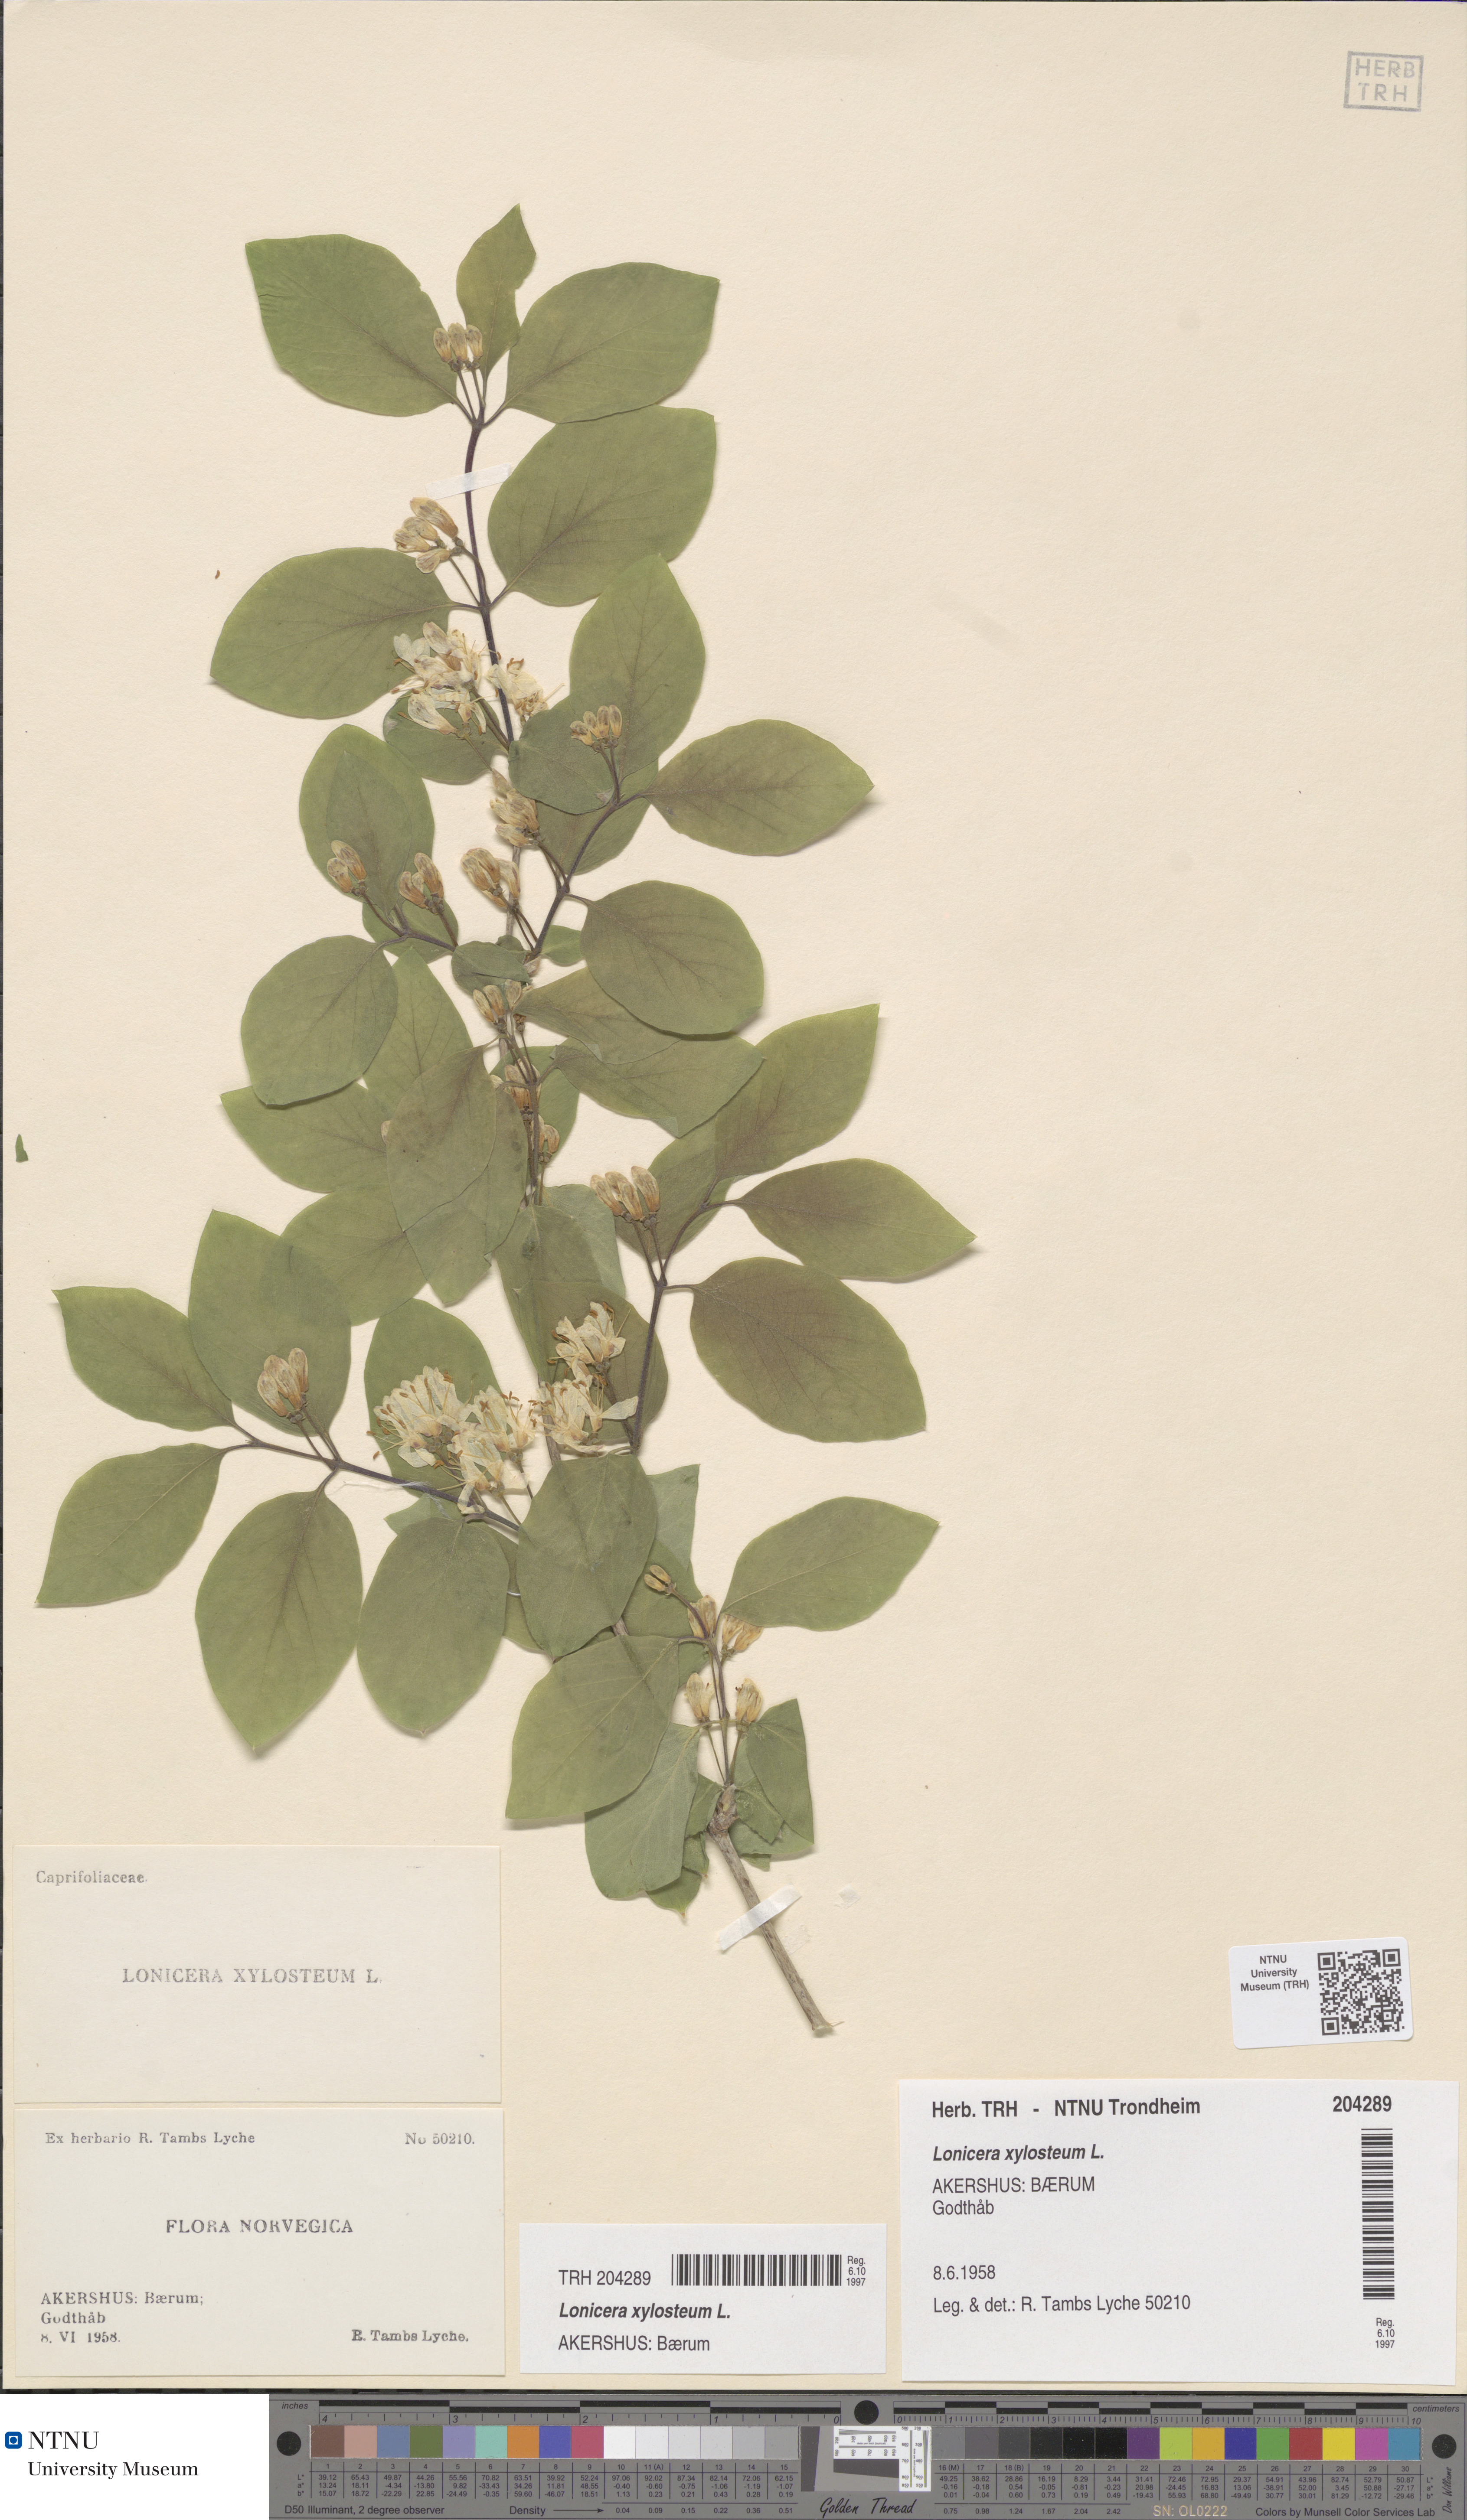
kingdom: Plantae
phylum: Tracheophyta
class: Magnoliopsida
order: Dipsacales
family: Caprifoliaceae
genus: Lonicera
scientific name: Lonicera xylosteum
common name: Fly honeysuckle
